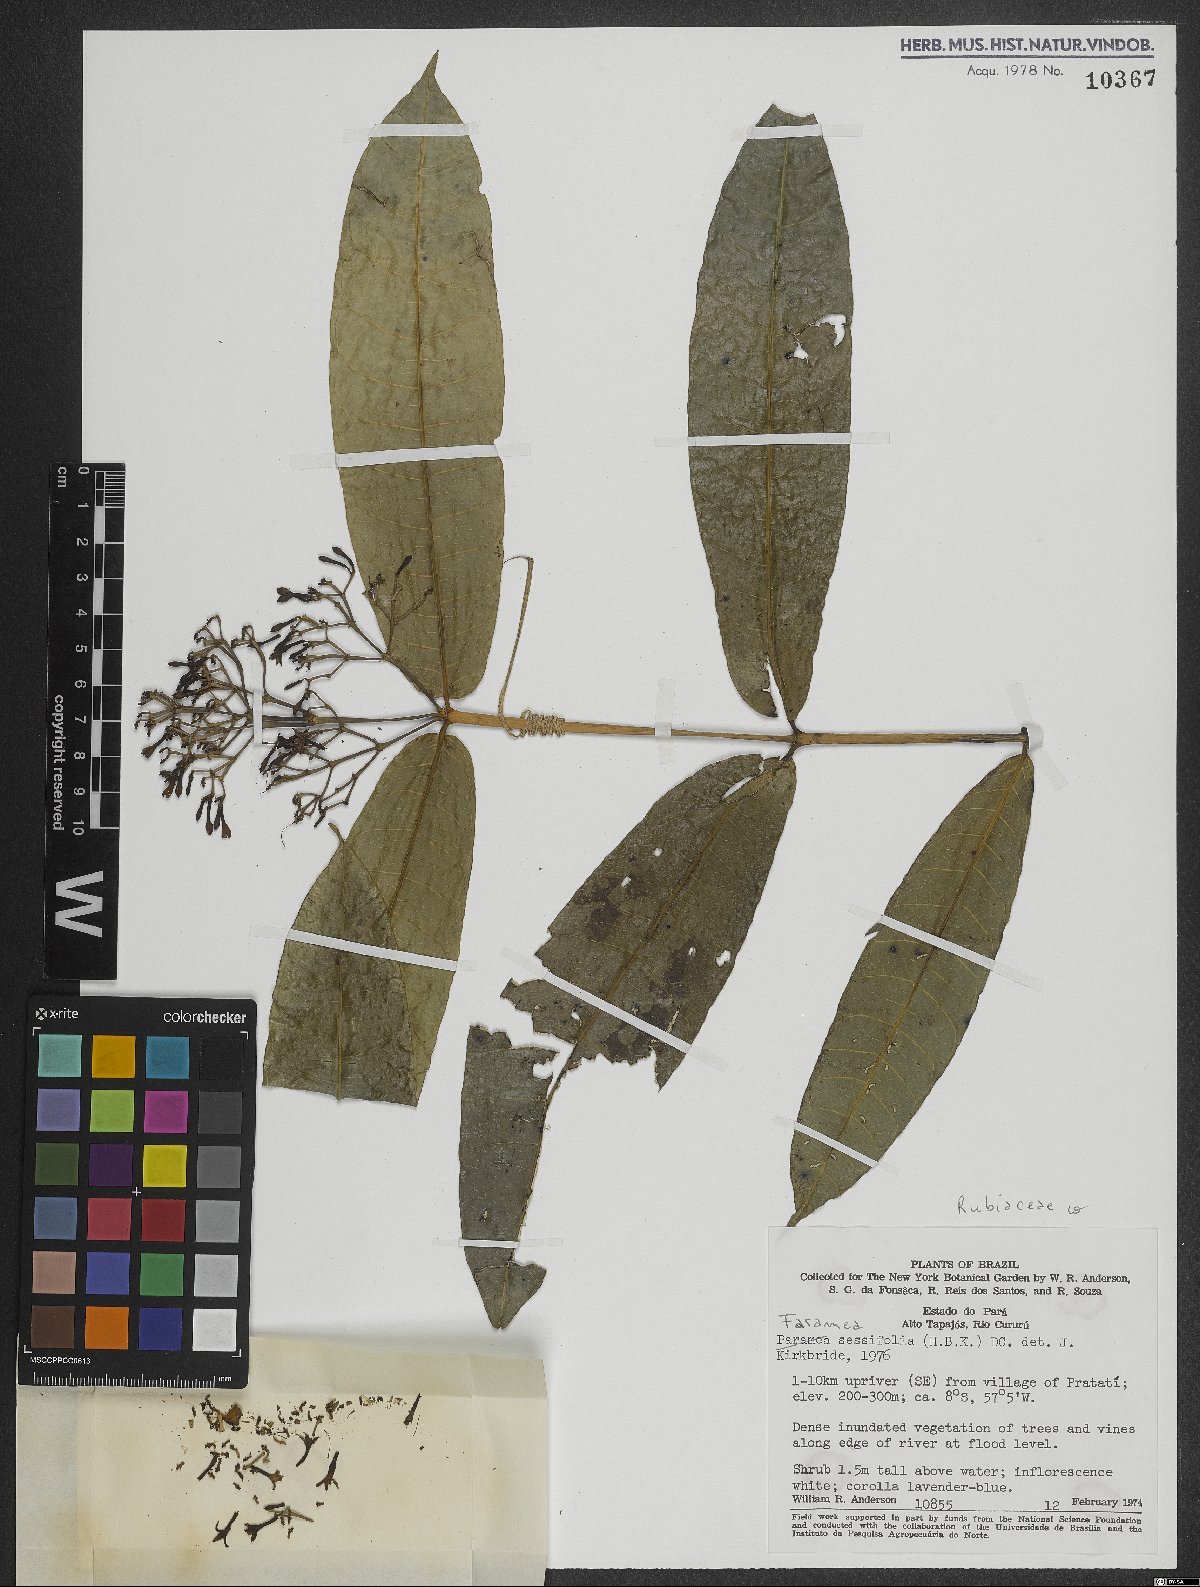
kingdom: Plantae
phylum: Tracheophyta
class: Magnoliopsida
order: Gentianales
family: Rubiaceae
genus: Faramea
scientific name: Faramea tamberlikiana
